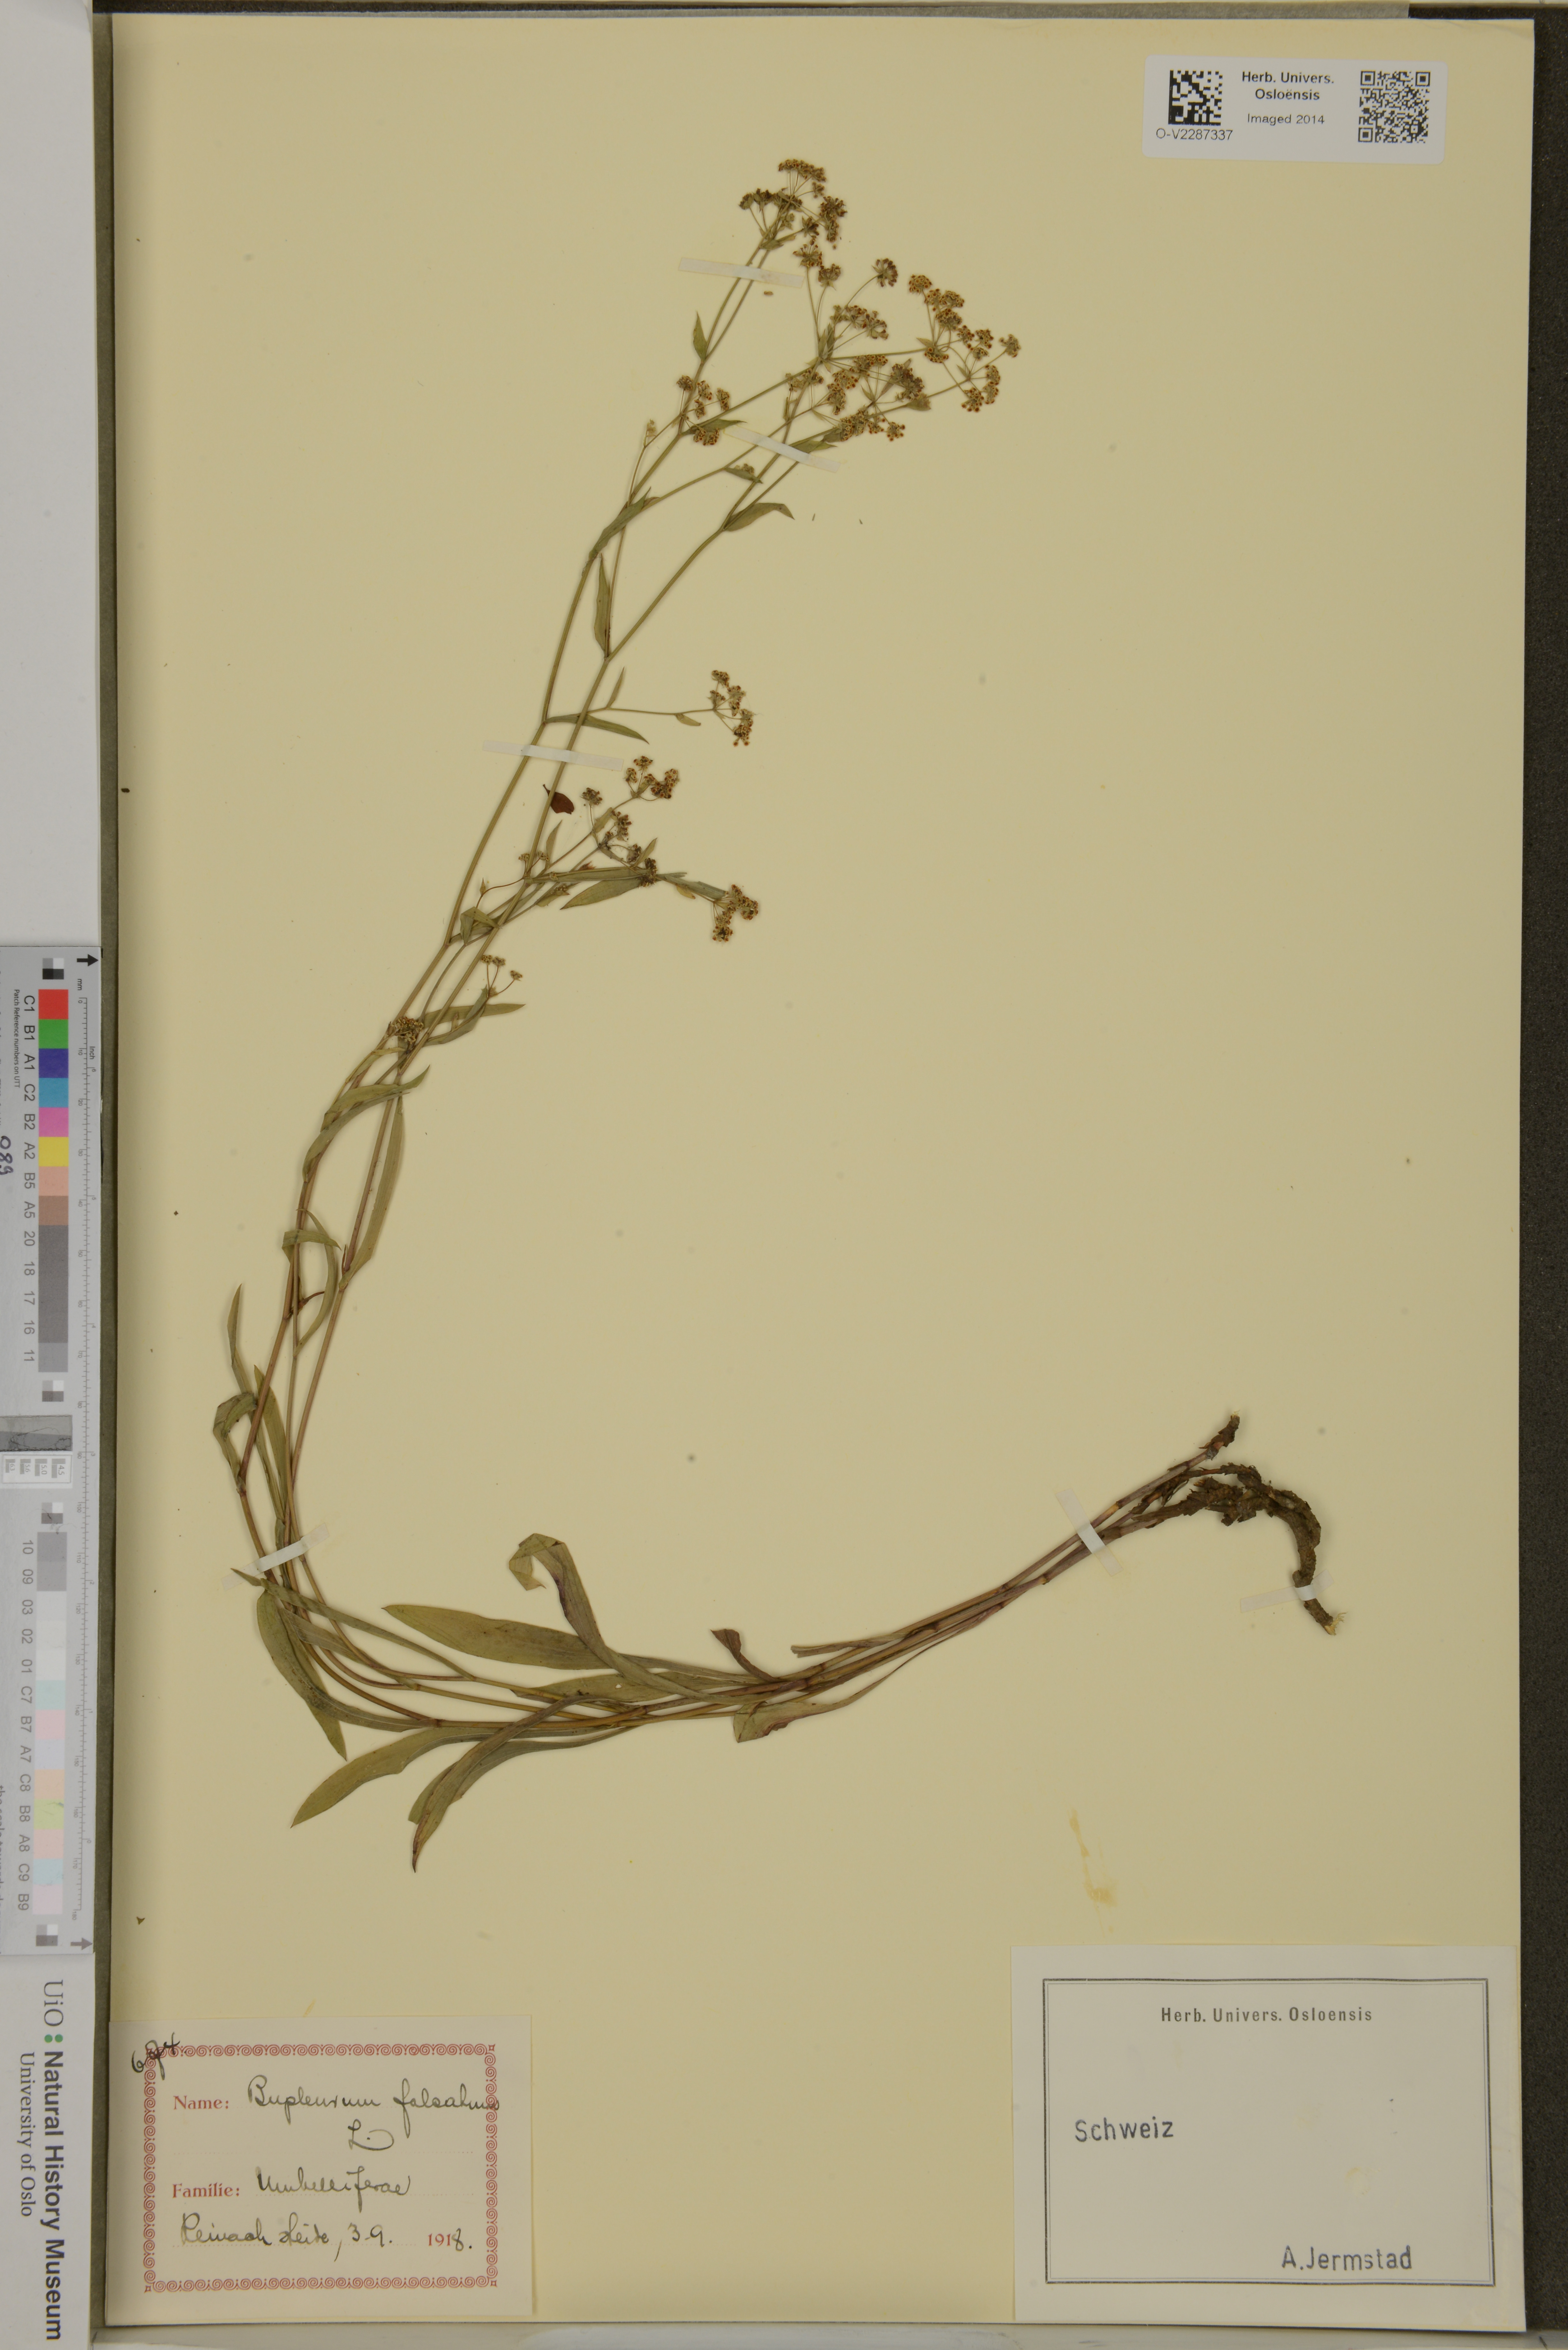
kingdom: Plantae
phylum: Tracheophyta
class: Magnoliopsida
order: Apiales
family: Apiaceae
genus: Bupleurum
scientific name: Bupleurum falcatum
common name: Sickle-leaved hare's-ear
